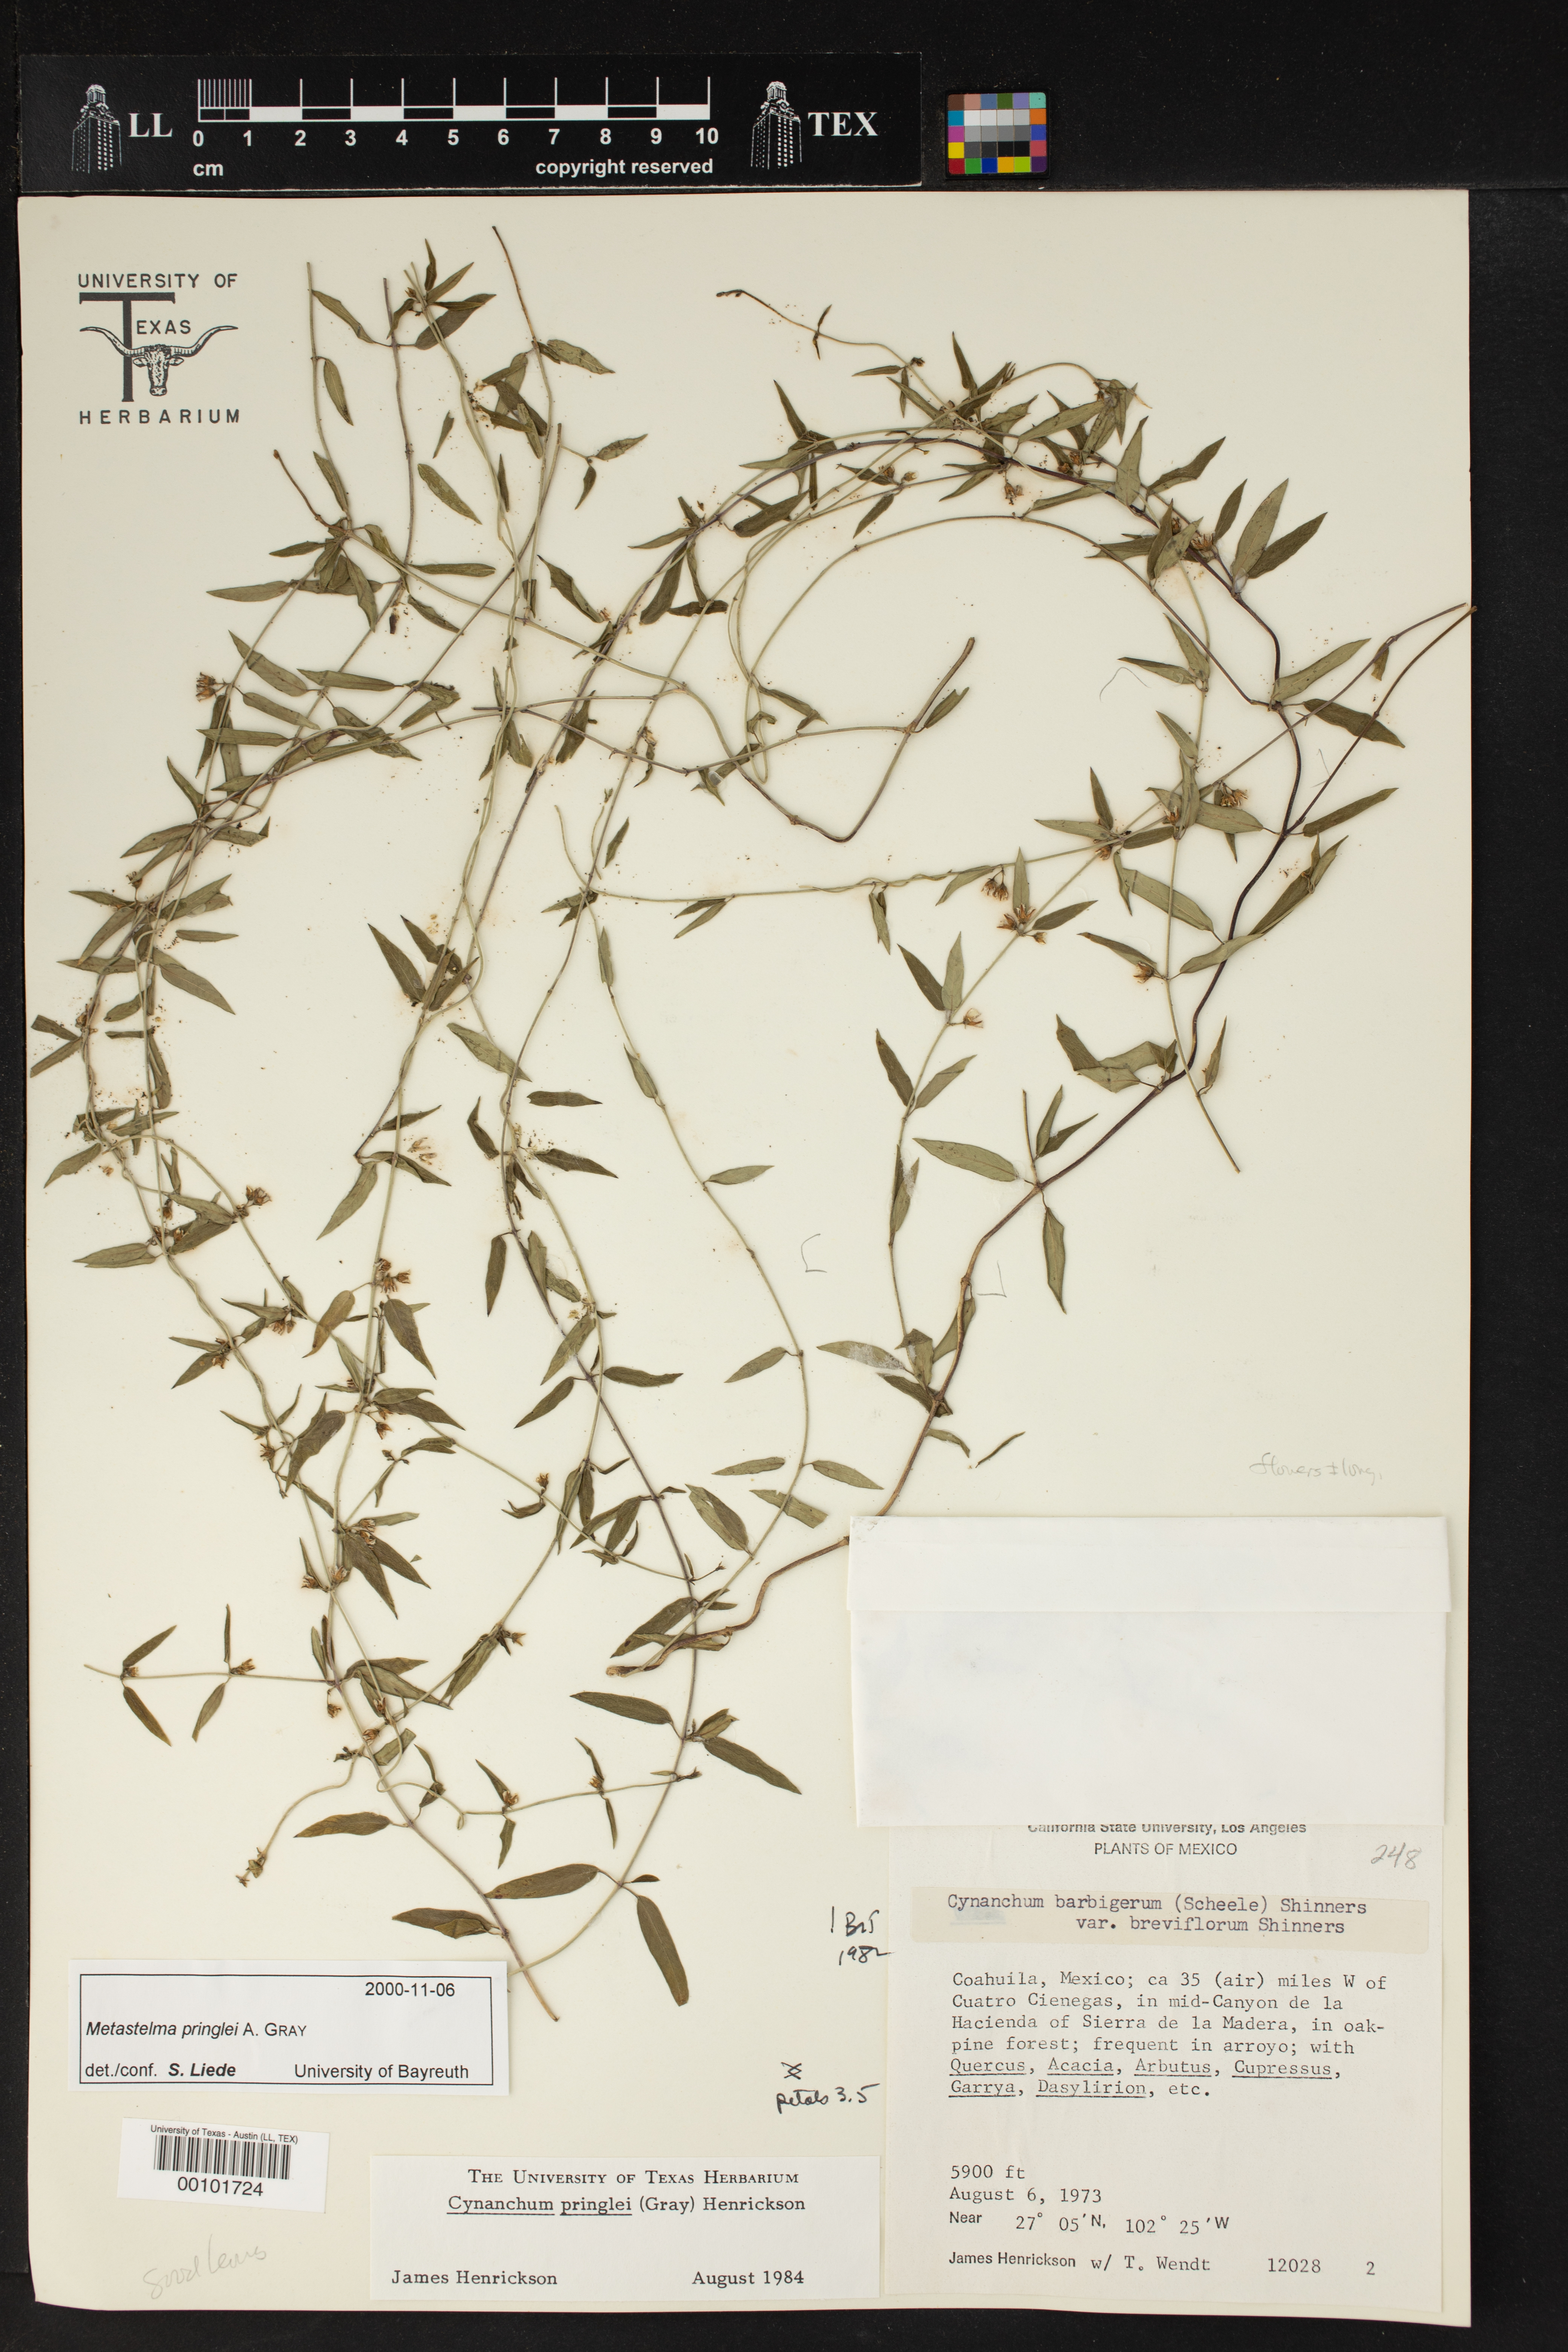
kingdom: Plantae
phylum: Tracheophyta
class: Magnoliopsida
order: Gentianales
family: Apocynaceae
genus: Metastelma
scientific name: Metastelma pringlei
